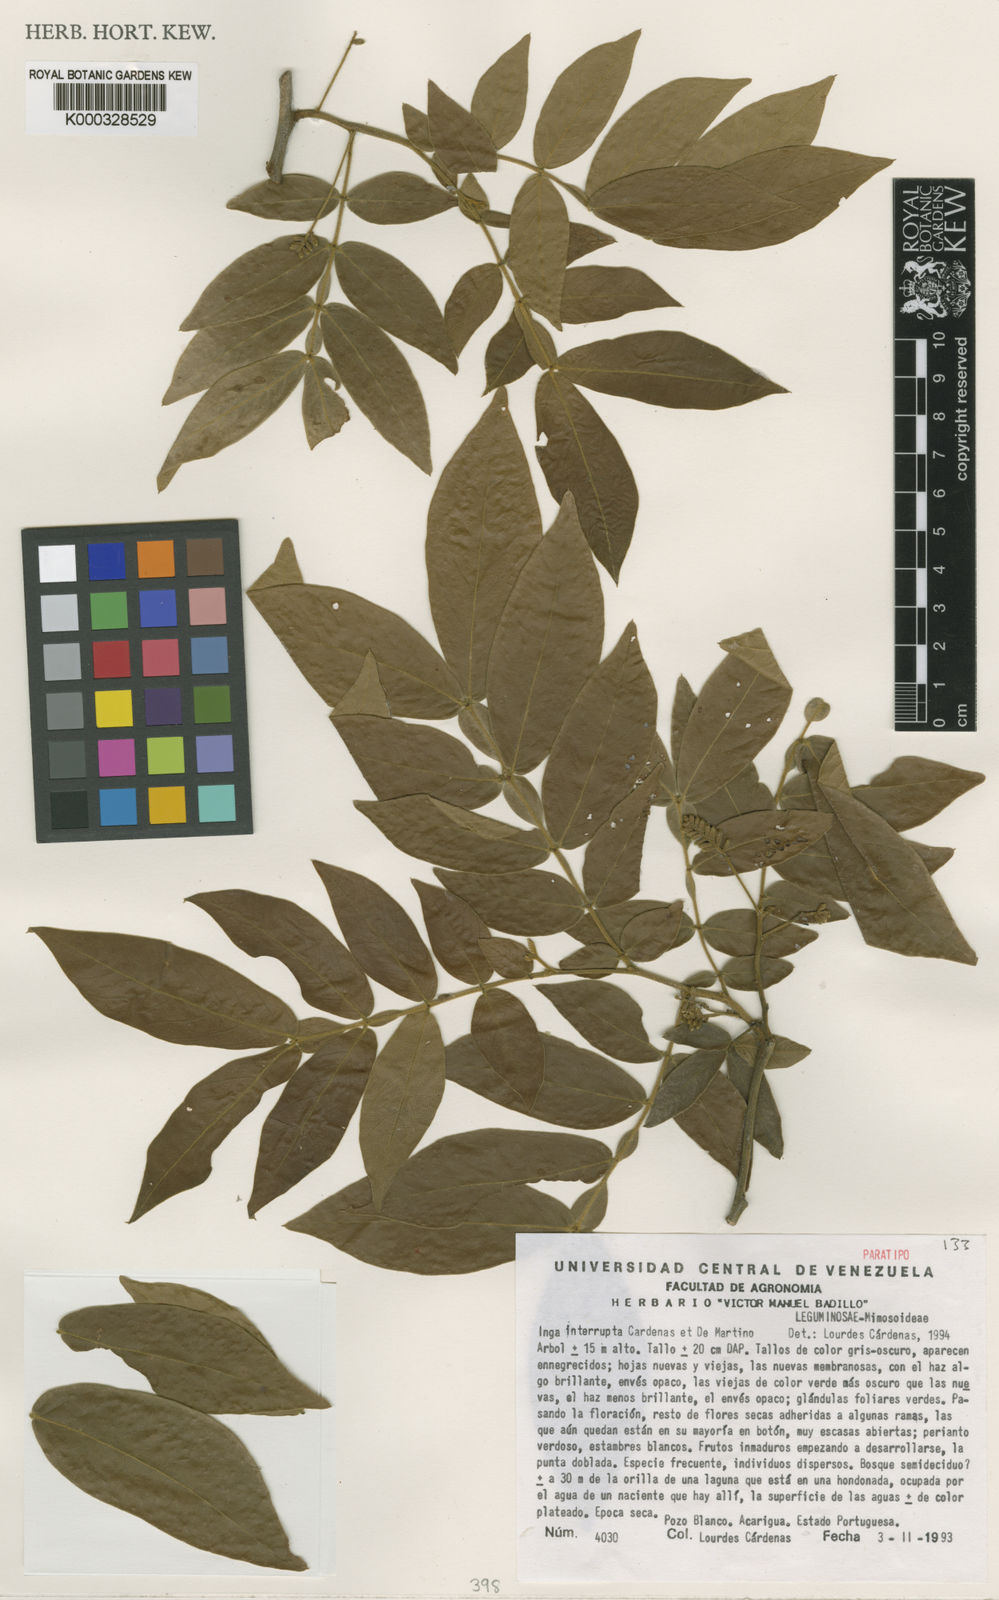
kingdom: Plantae
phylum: Tracheophyta
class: Magnoliopsida
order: Fabales
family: Fabaceae
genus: Inga
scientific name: Inga interrupta
